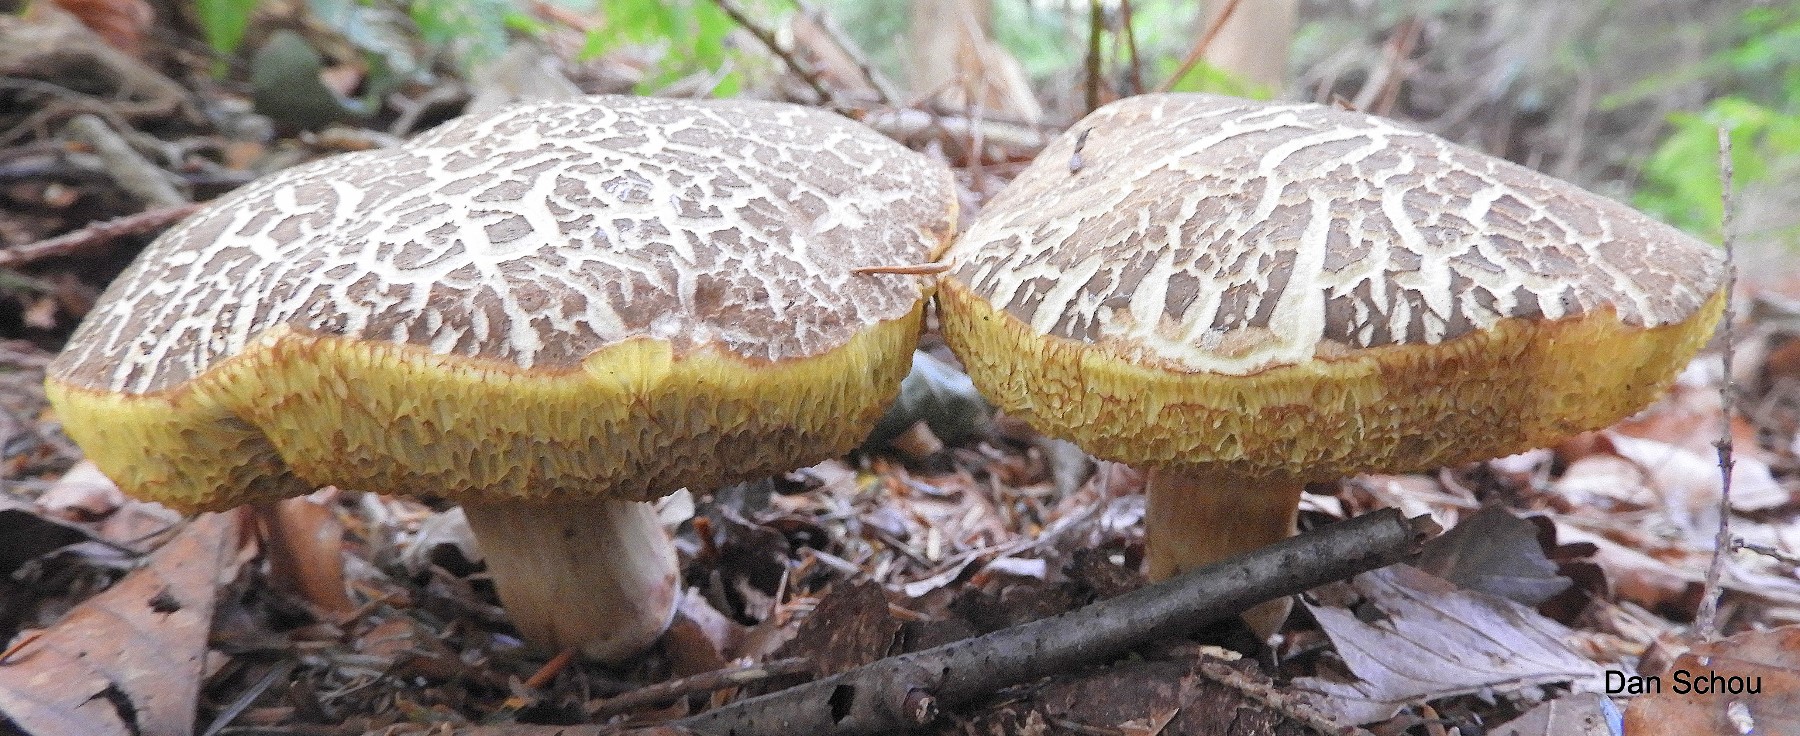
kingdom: Fungi
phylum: Basidiomycota
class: Agaricomycetes
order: Boletales
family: Boletaceae
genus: Xerocomellus
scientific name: Xerocomellus
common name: dværgrørhat
